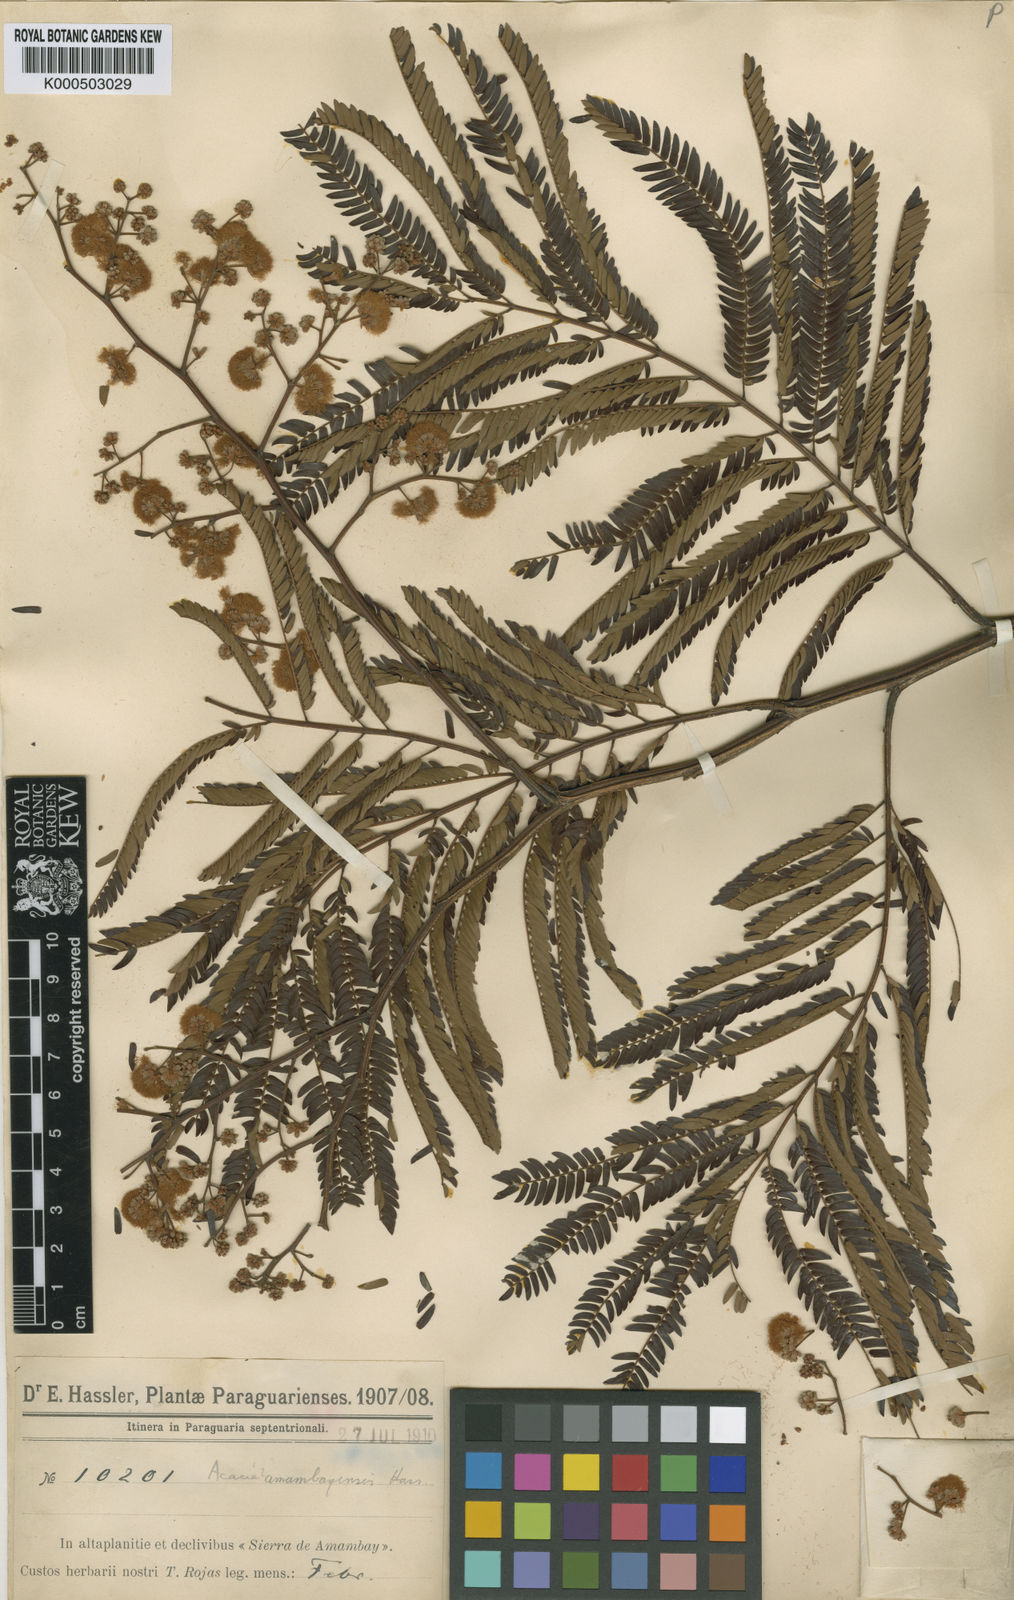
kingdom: Plantae
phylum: Tracheophyta
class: Magnoliopsida
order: Fabales
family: Fabaceae
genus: Senegalia
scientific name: Senegalia polyphylla
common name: White-tamarind
